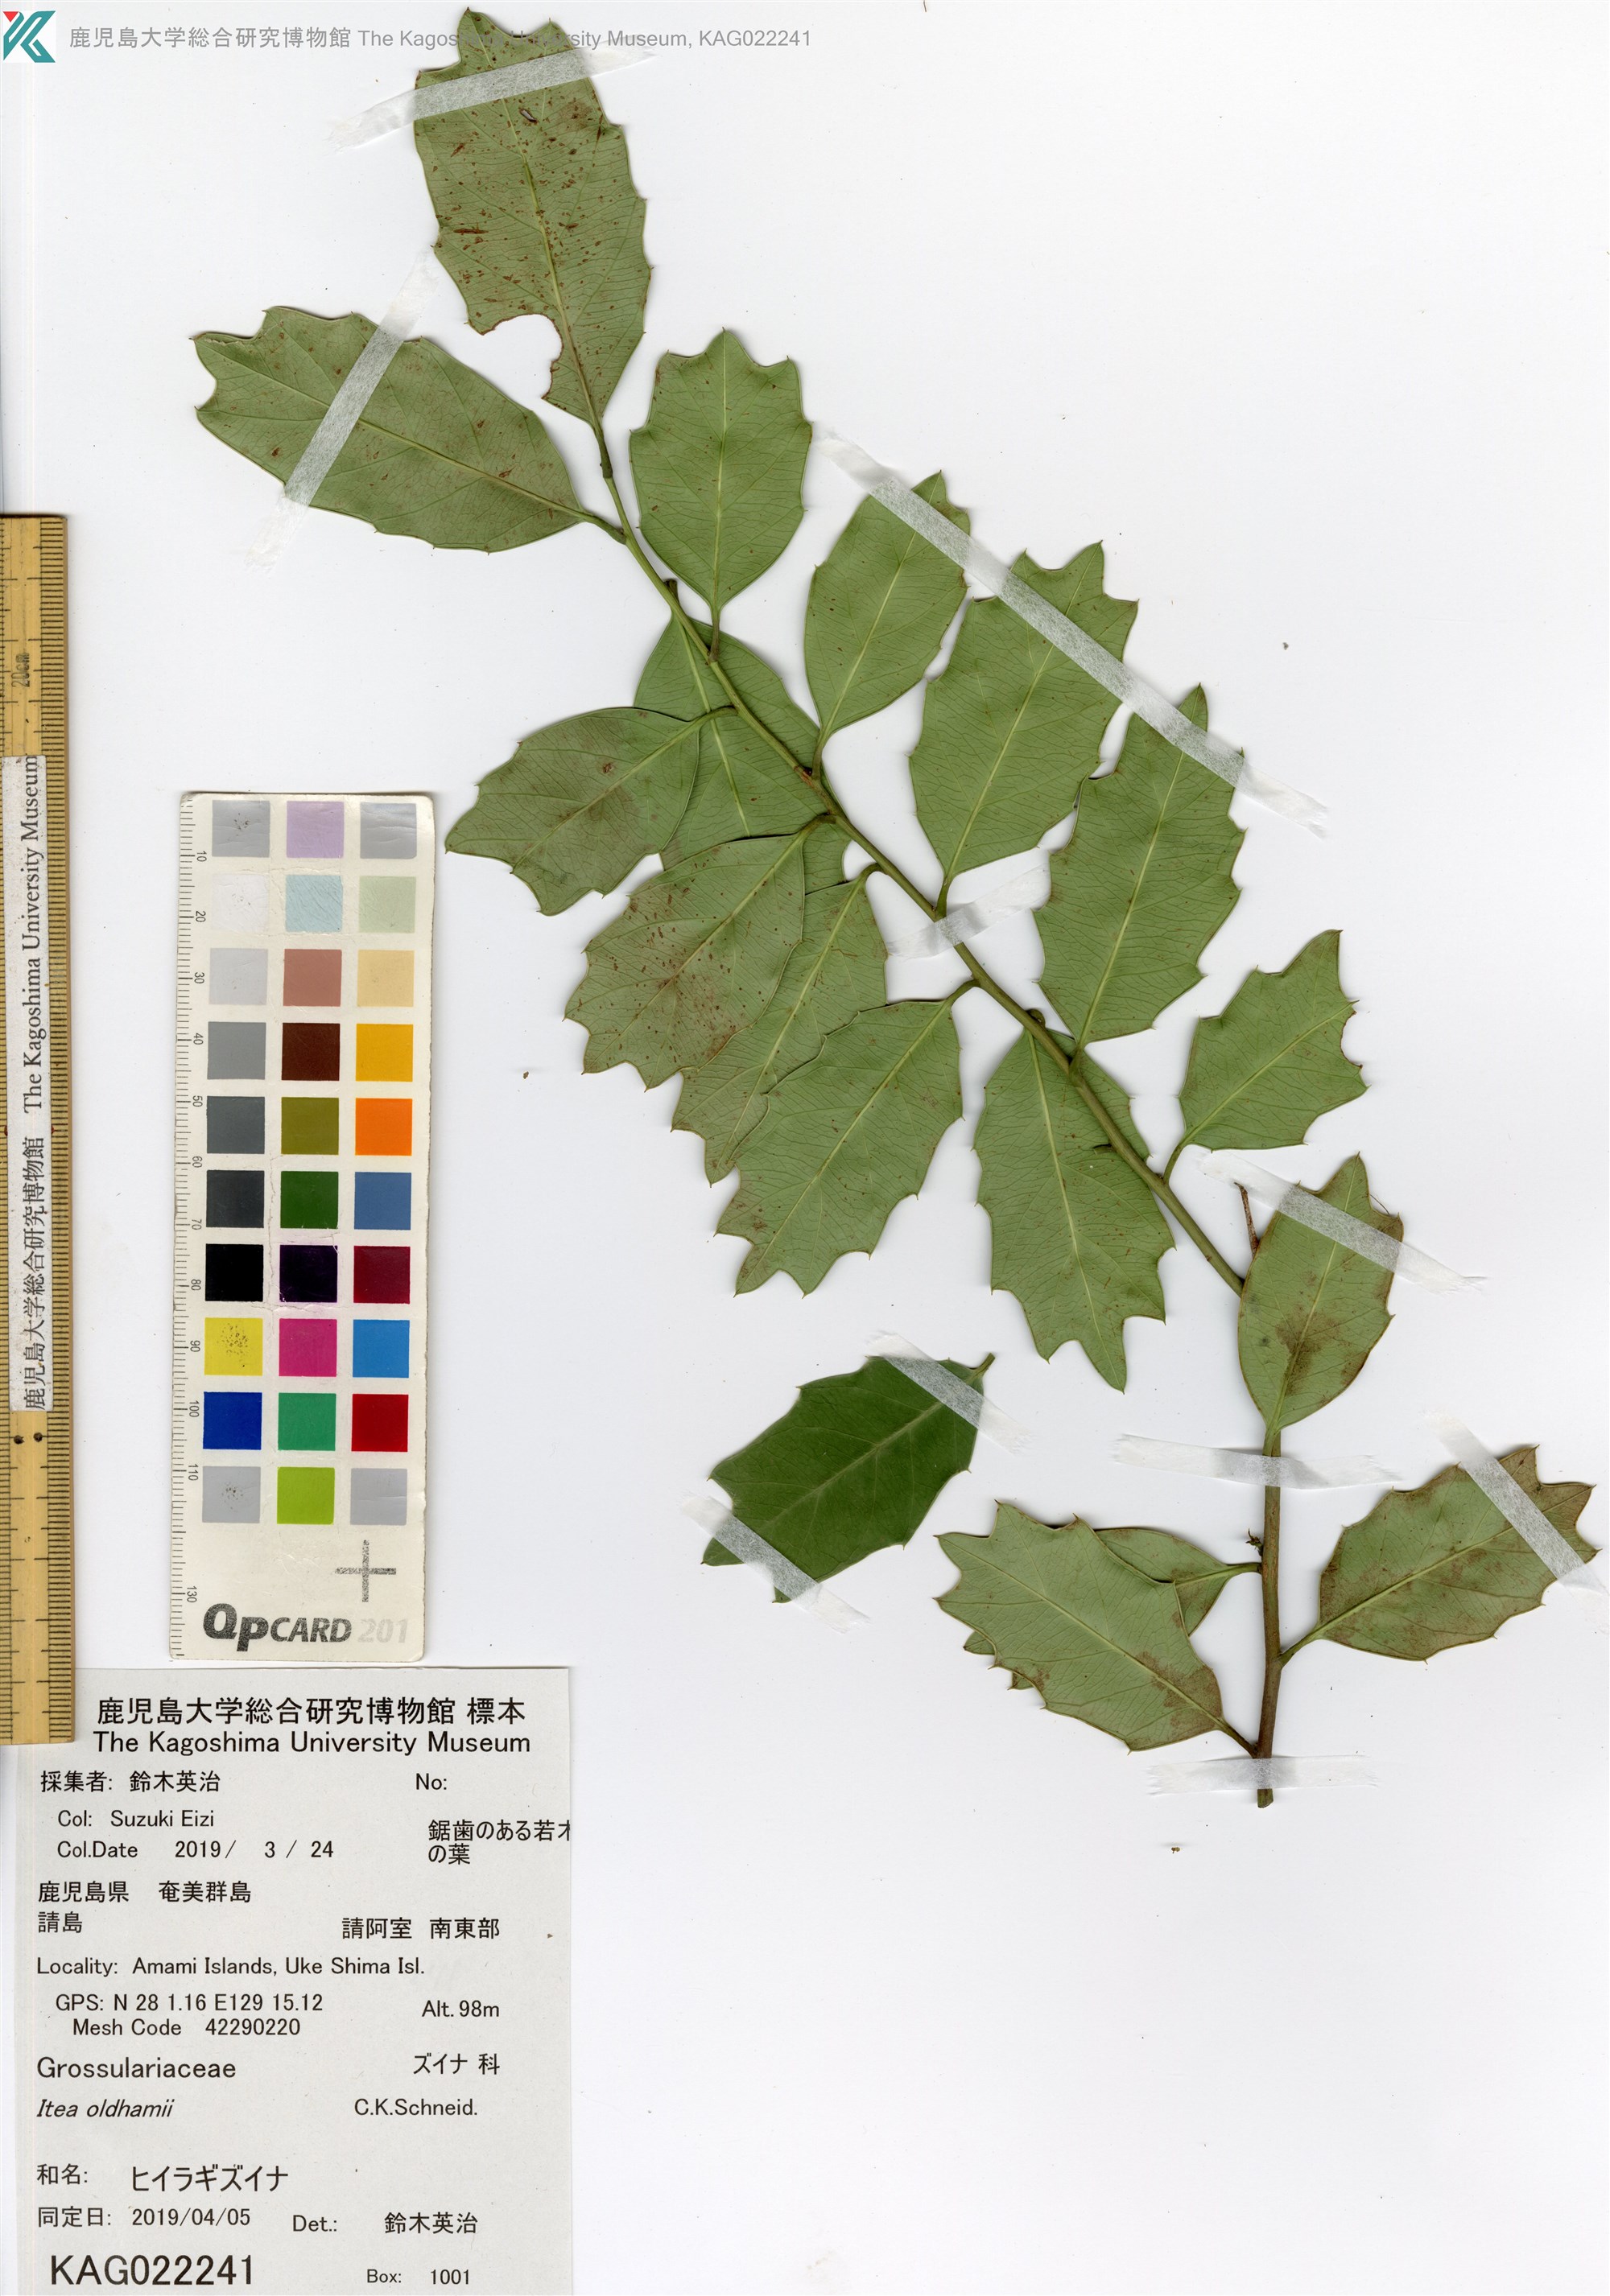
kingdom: Plantae
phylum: Tracheophyta
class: Magnoliopsida
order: Saxifragales
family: Iteaceae
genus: Itea
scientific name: Itea oldhamii
